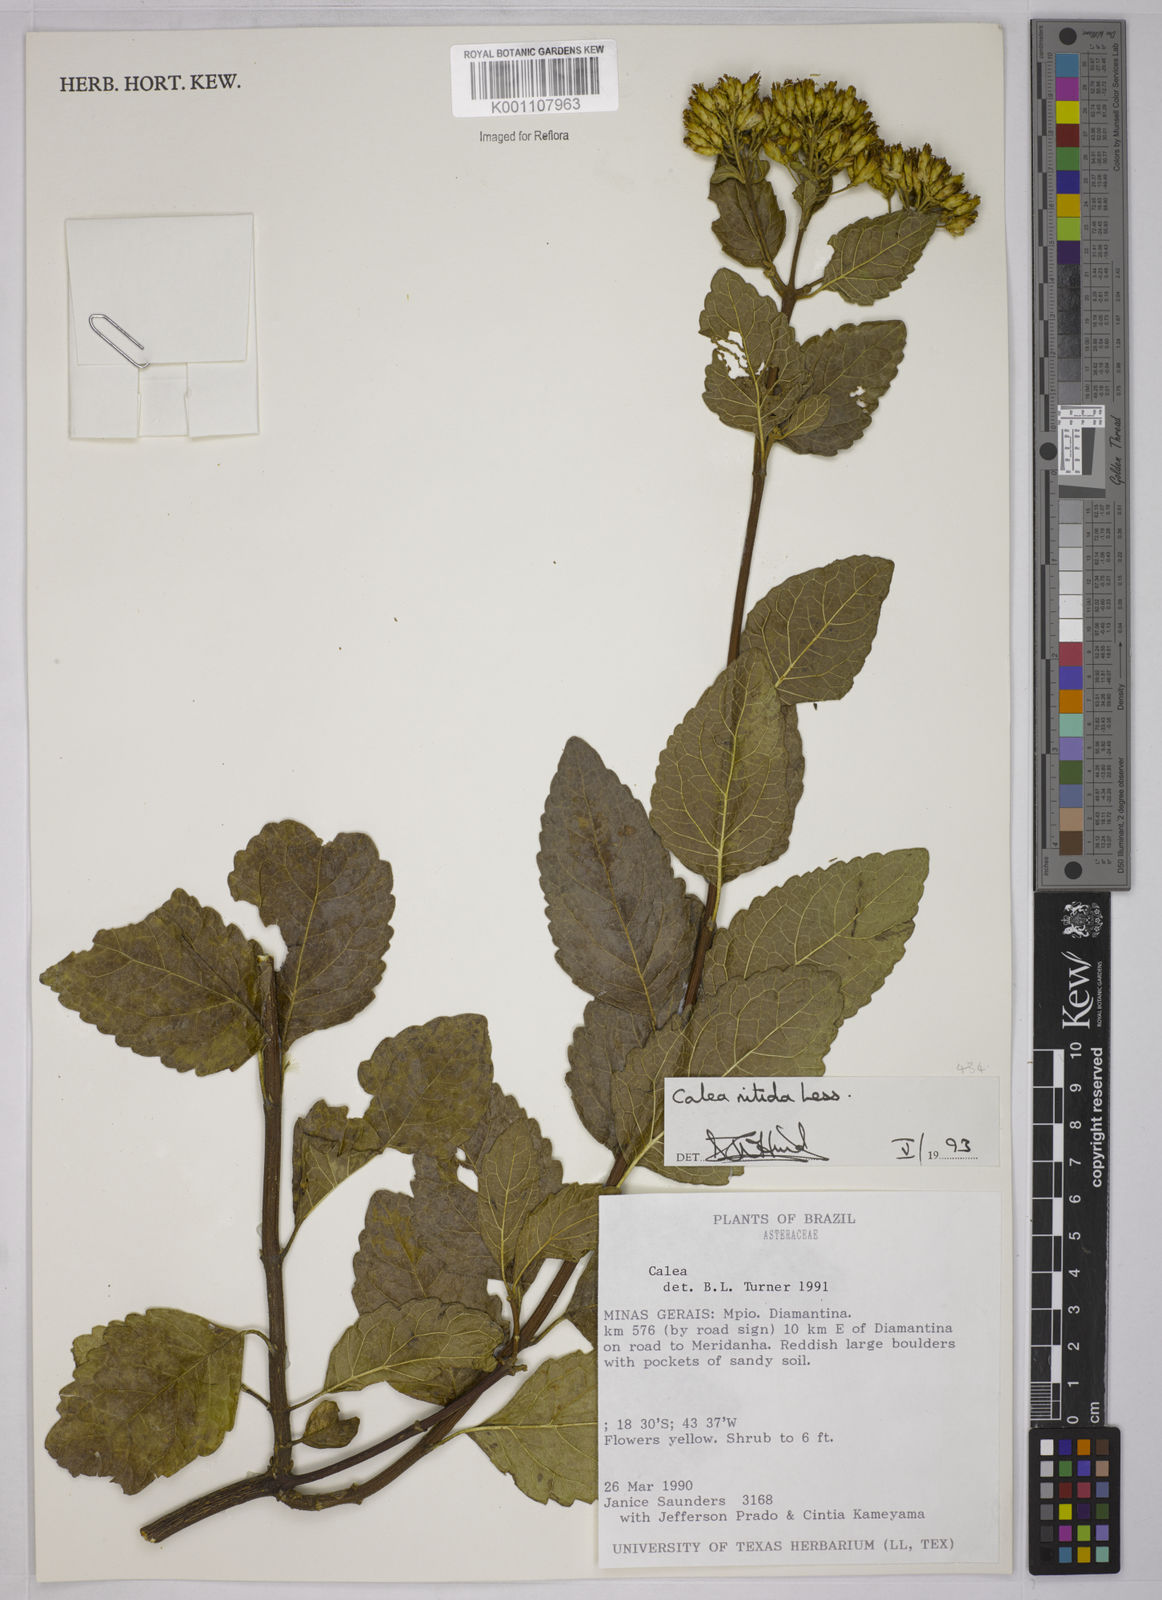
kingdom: Plantae
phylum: Tracheophyta
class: Magnoliopsida
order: Asterales
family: Asteraceae
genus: Calea
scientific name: Calea nitida
